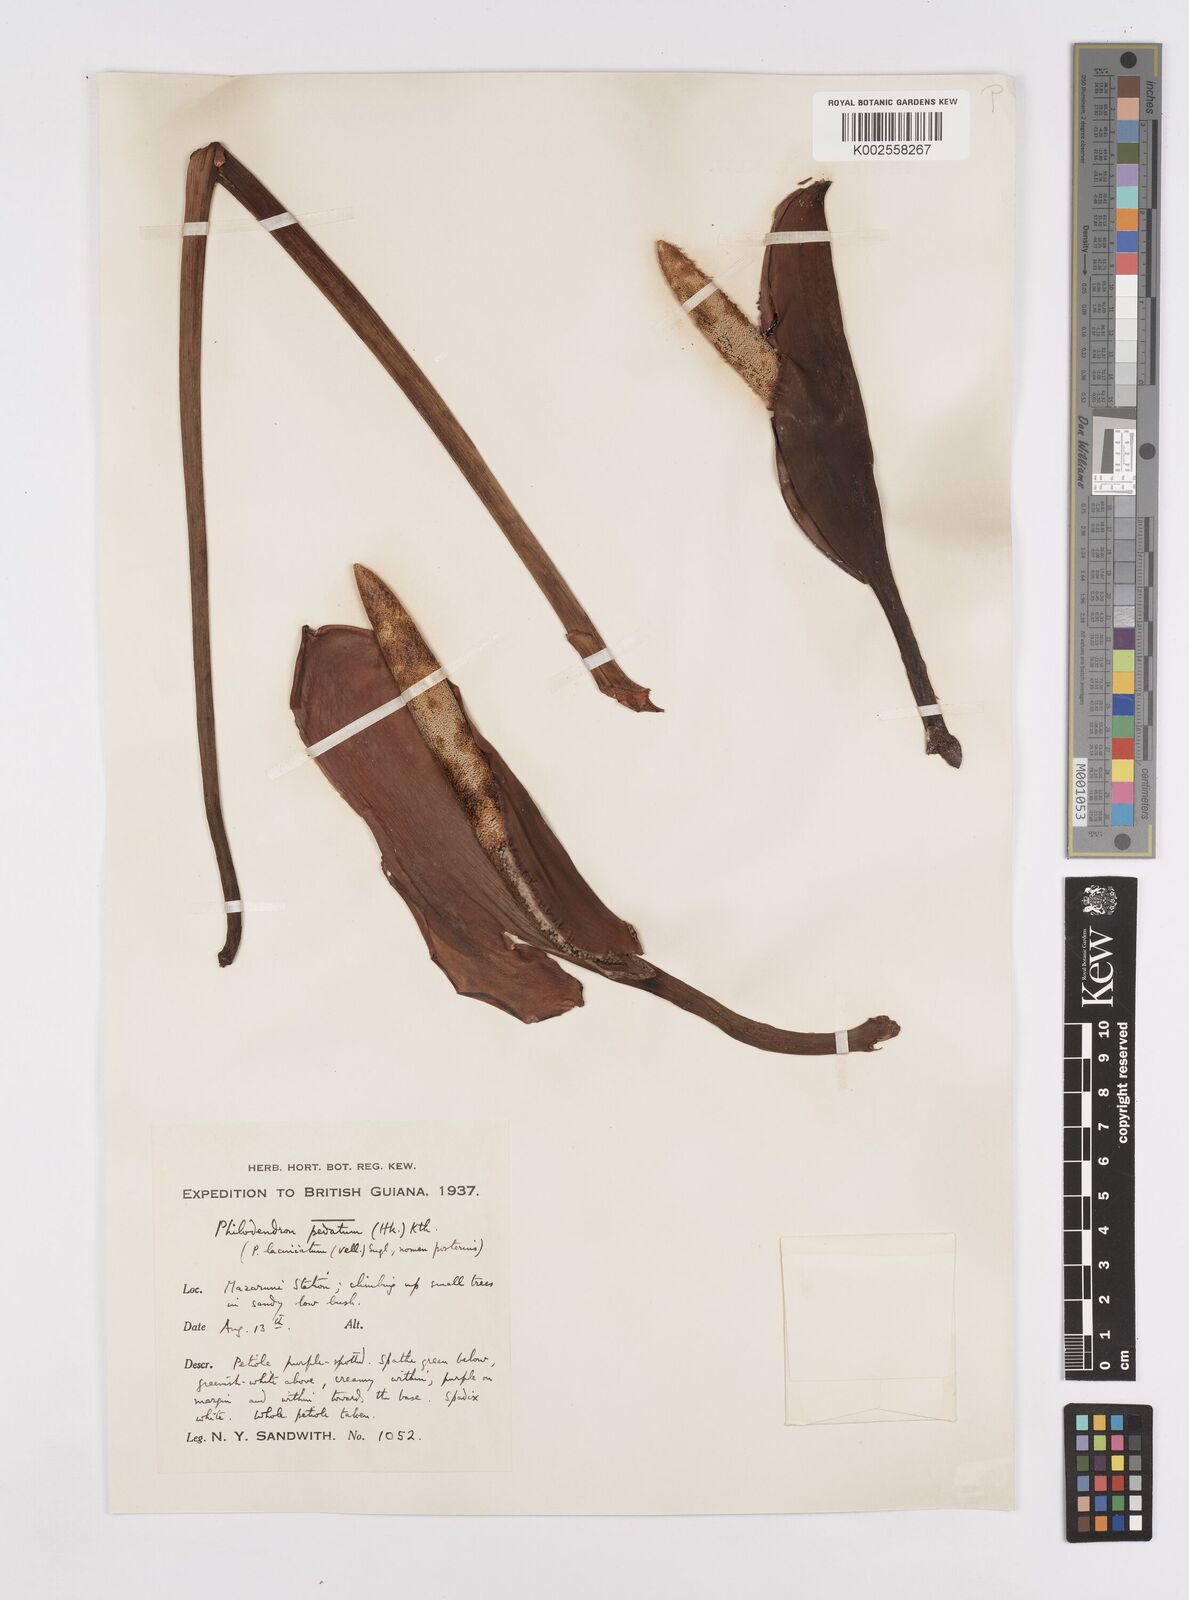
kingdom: Plantae
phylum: Tracheophyta
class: Liliopsida
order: Alismatales
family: Araceae
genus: Philodendron
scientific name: Philodendron pedatum
